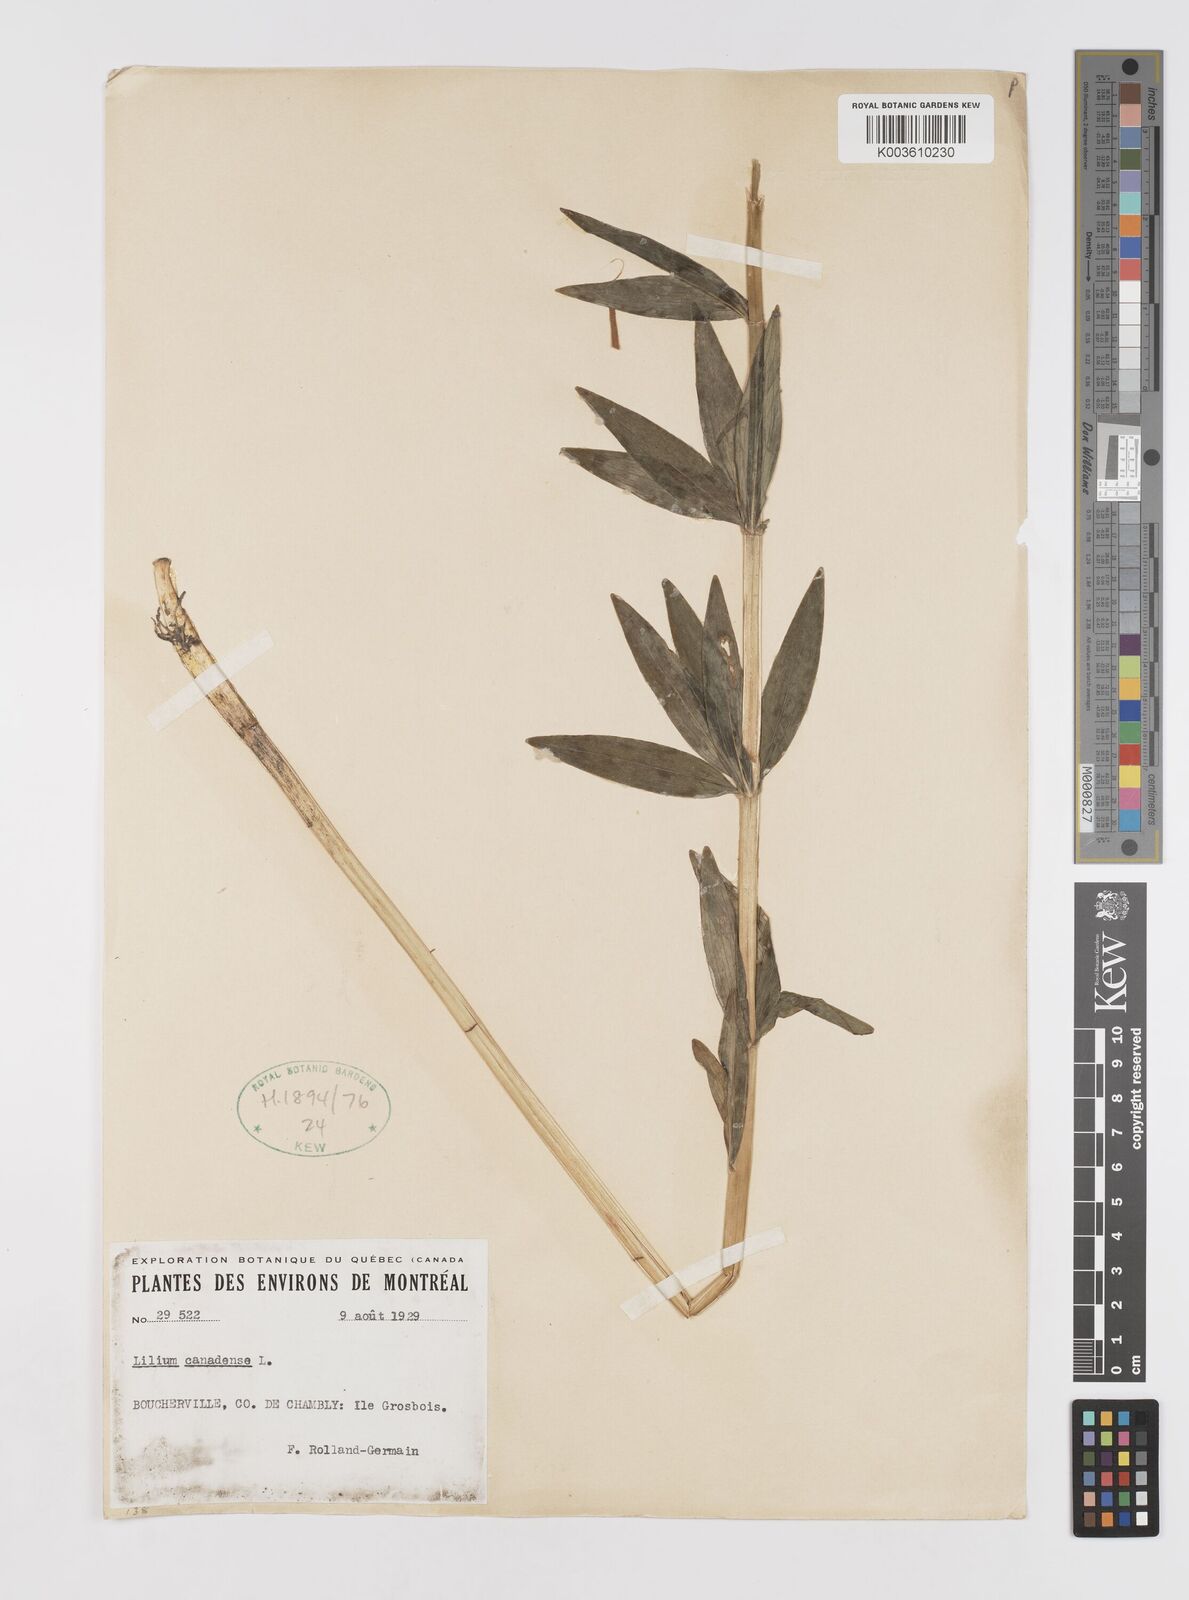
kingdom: Plantae
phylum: Tracheophyta
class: Liliopsida
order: Liliales
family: Liliaceae
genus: Lilium
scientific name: Lilium canadense
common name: Canada lily
